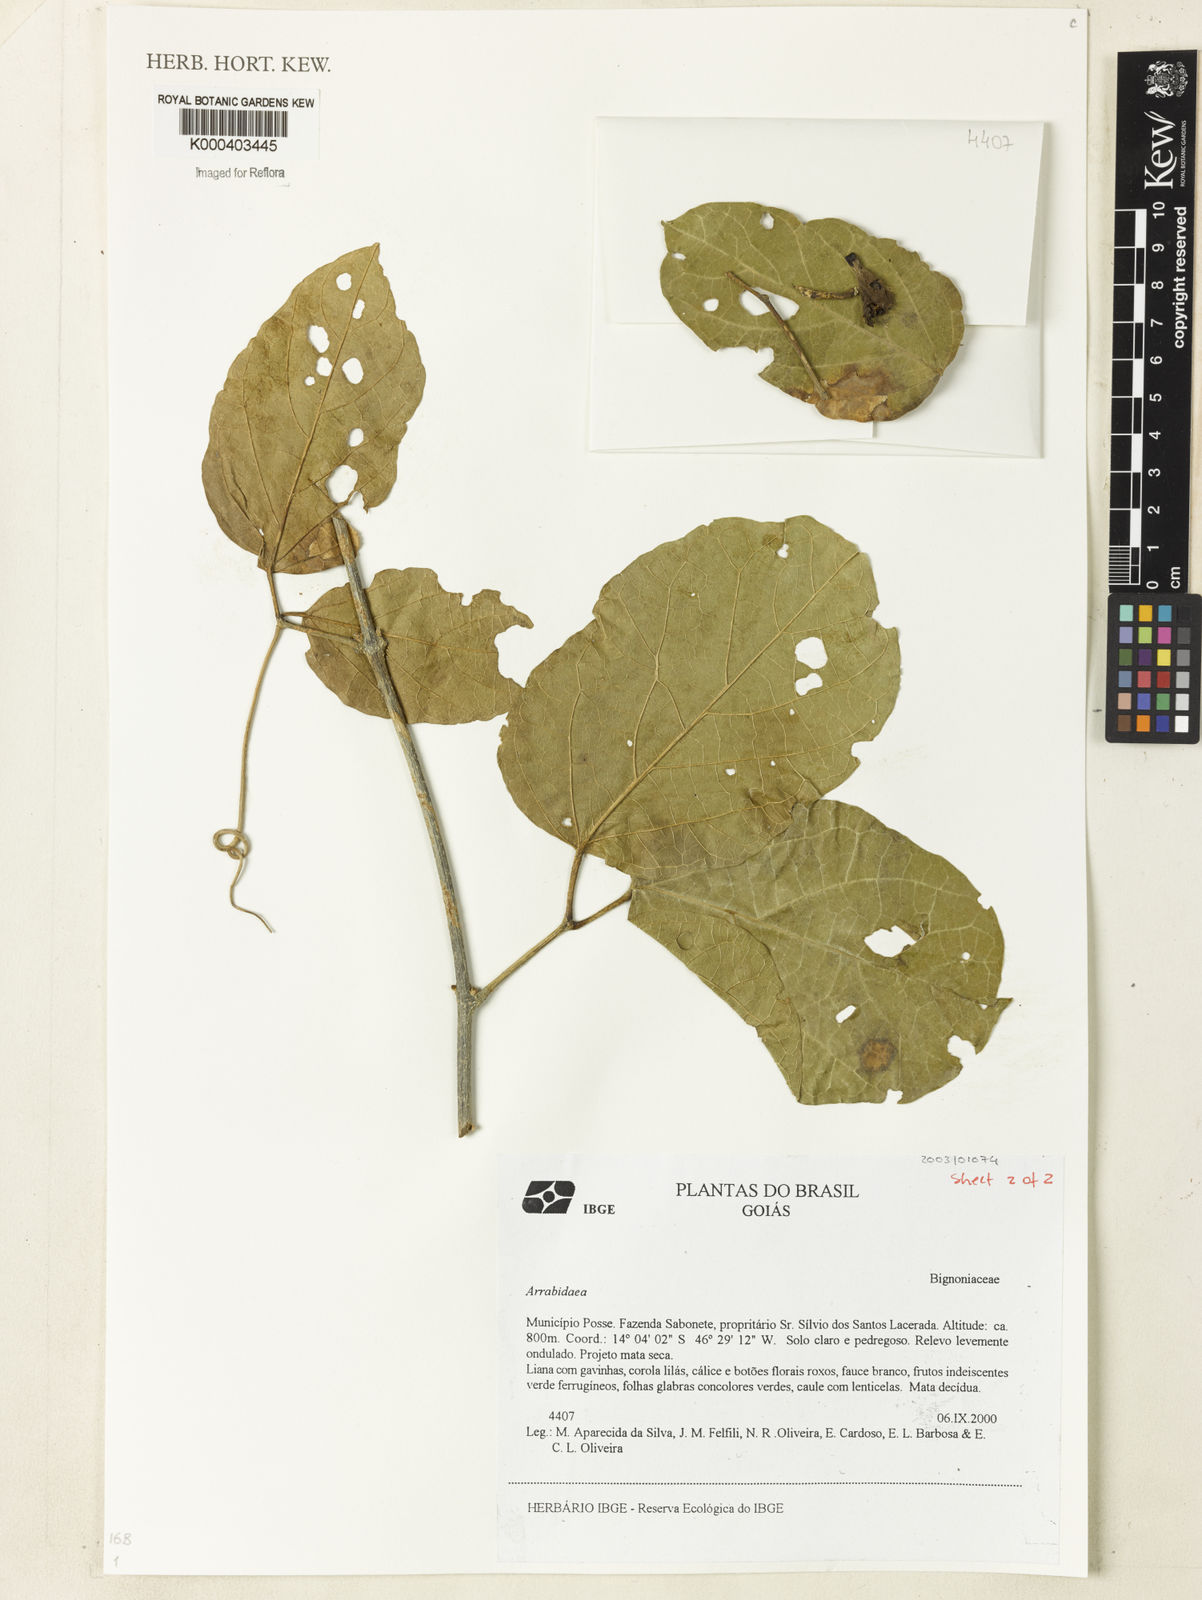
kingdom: Plantae
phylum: Tracheophyta
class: Magnoliopsida
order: Rosales
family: Rhamnaceae
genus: Arrabidaea
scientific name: Arrabidaea
